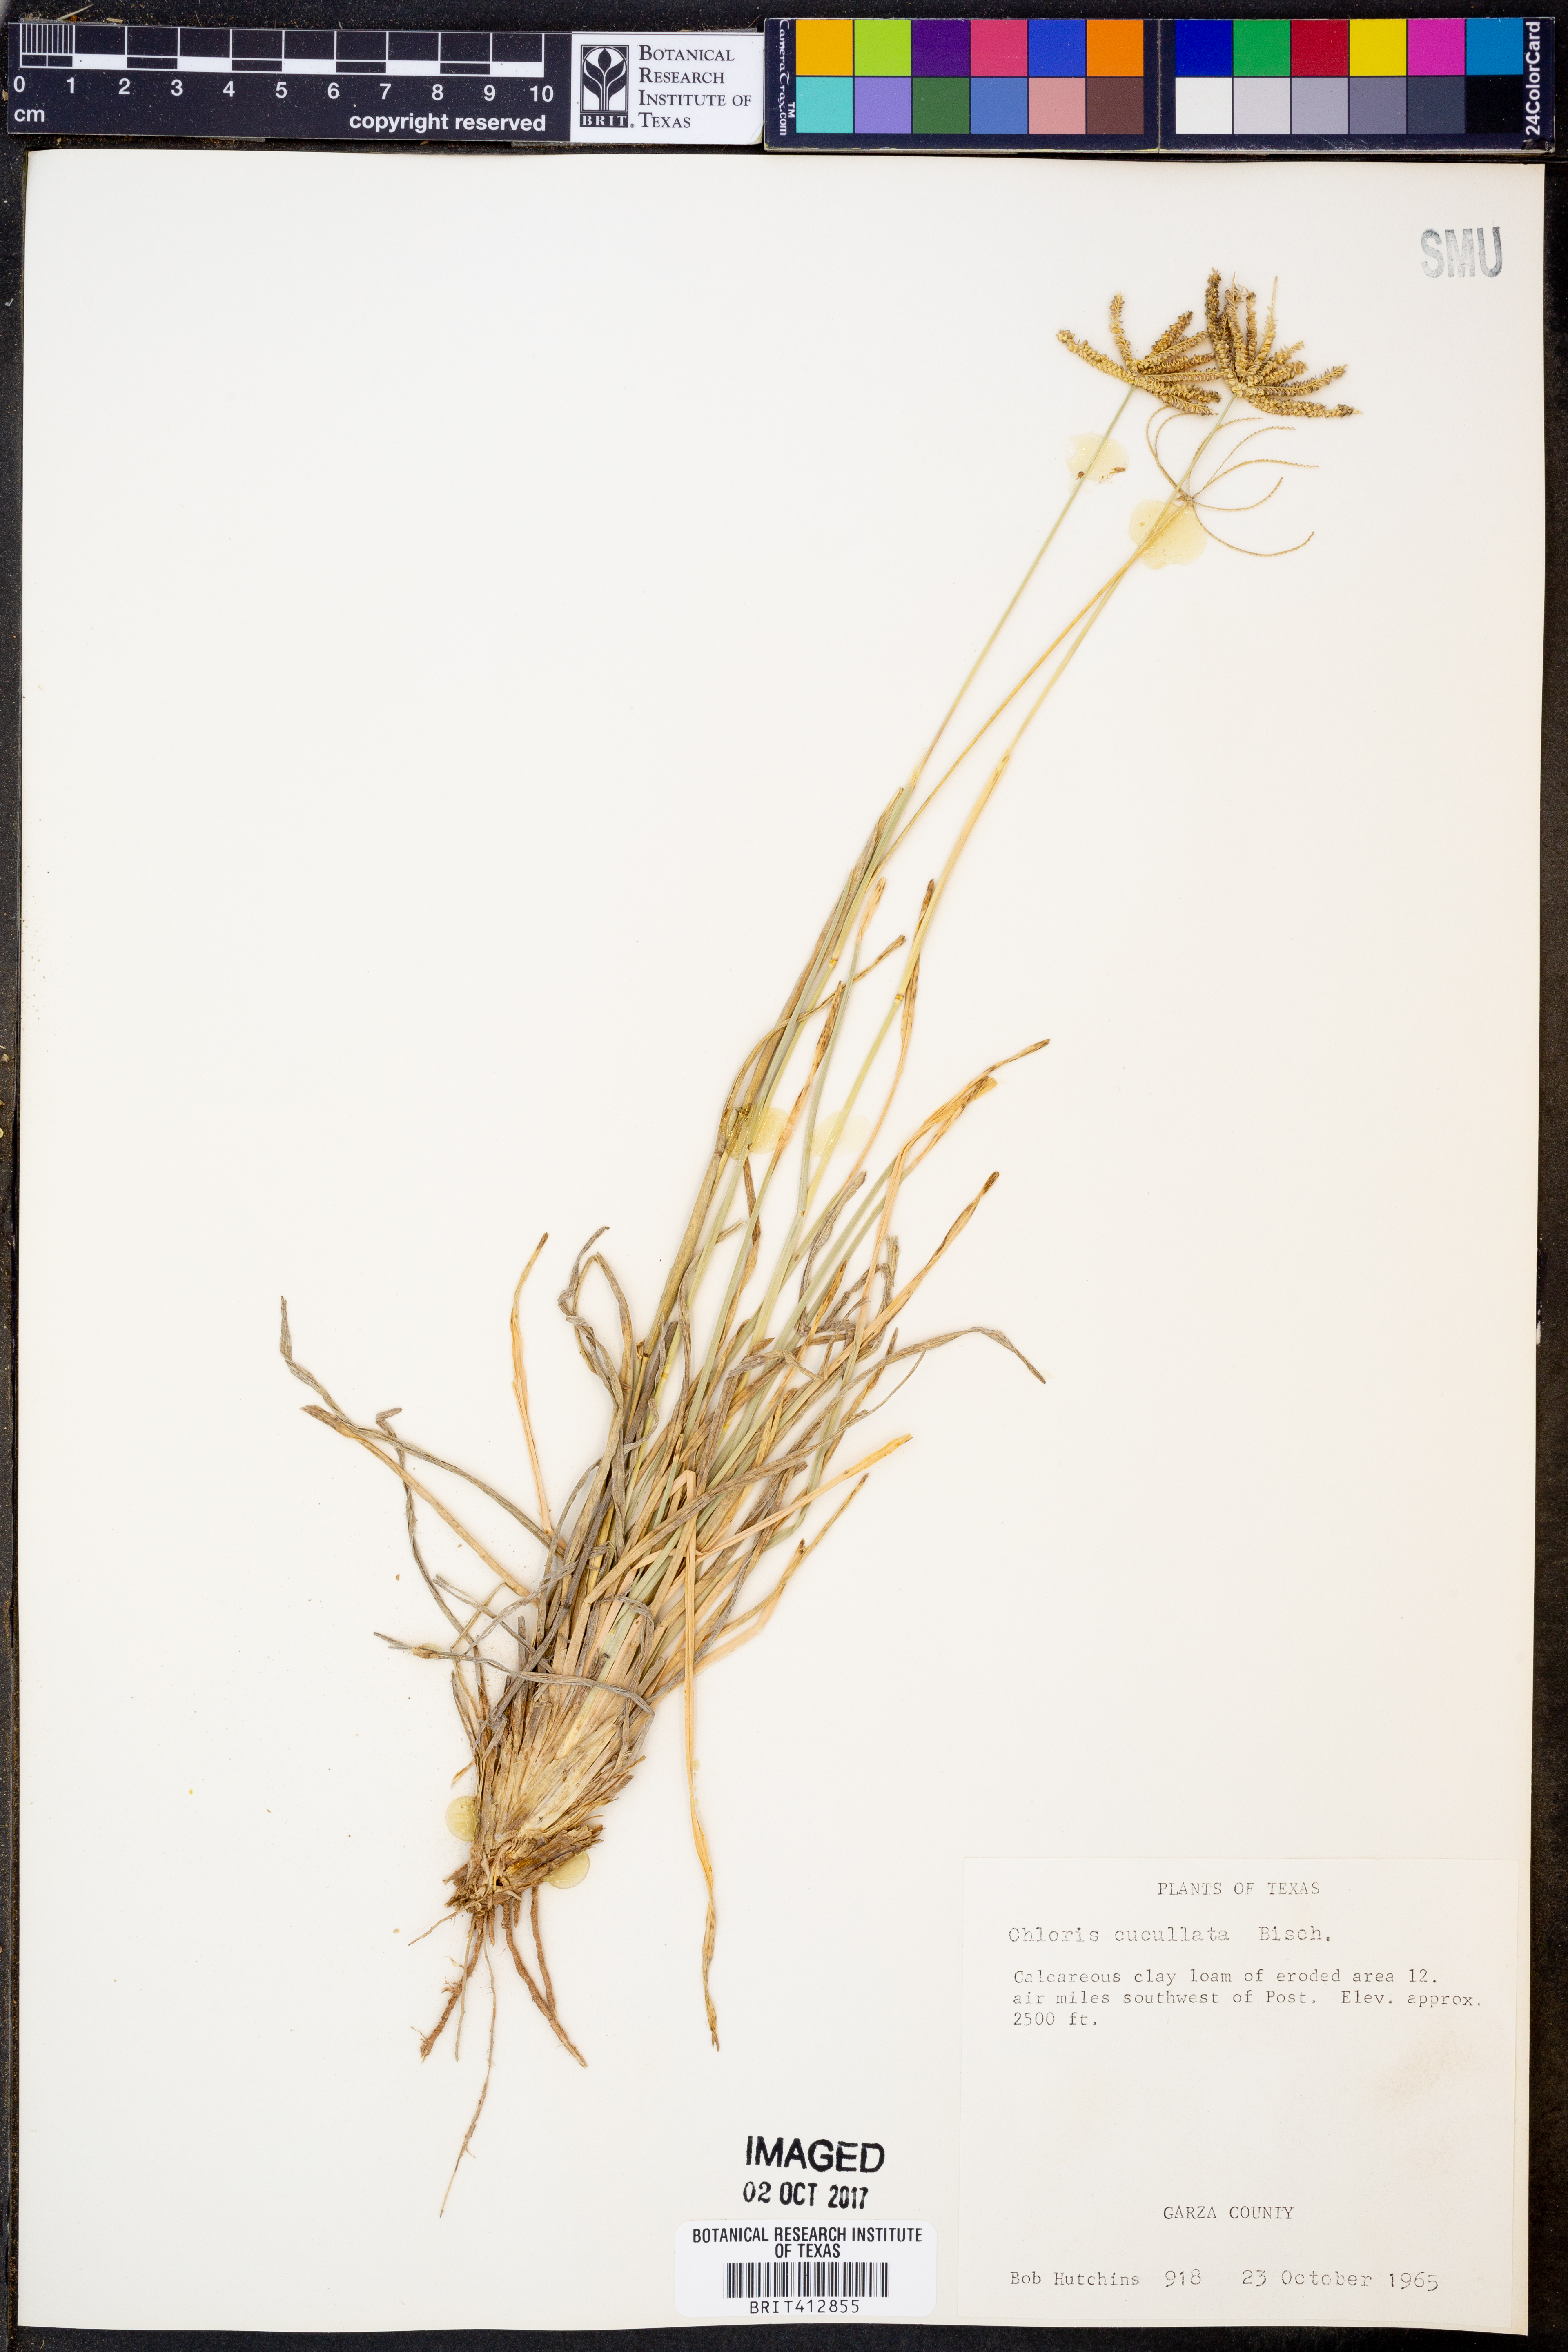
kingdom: Plantae
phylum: Tracheophyta
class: Liliopsida
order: Poales
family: Poaceae
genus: Chloris
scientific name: Chloris cucullata
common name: Hooded windmill grass
